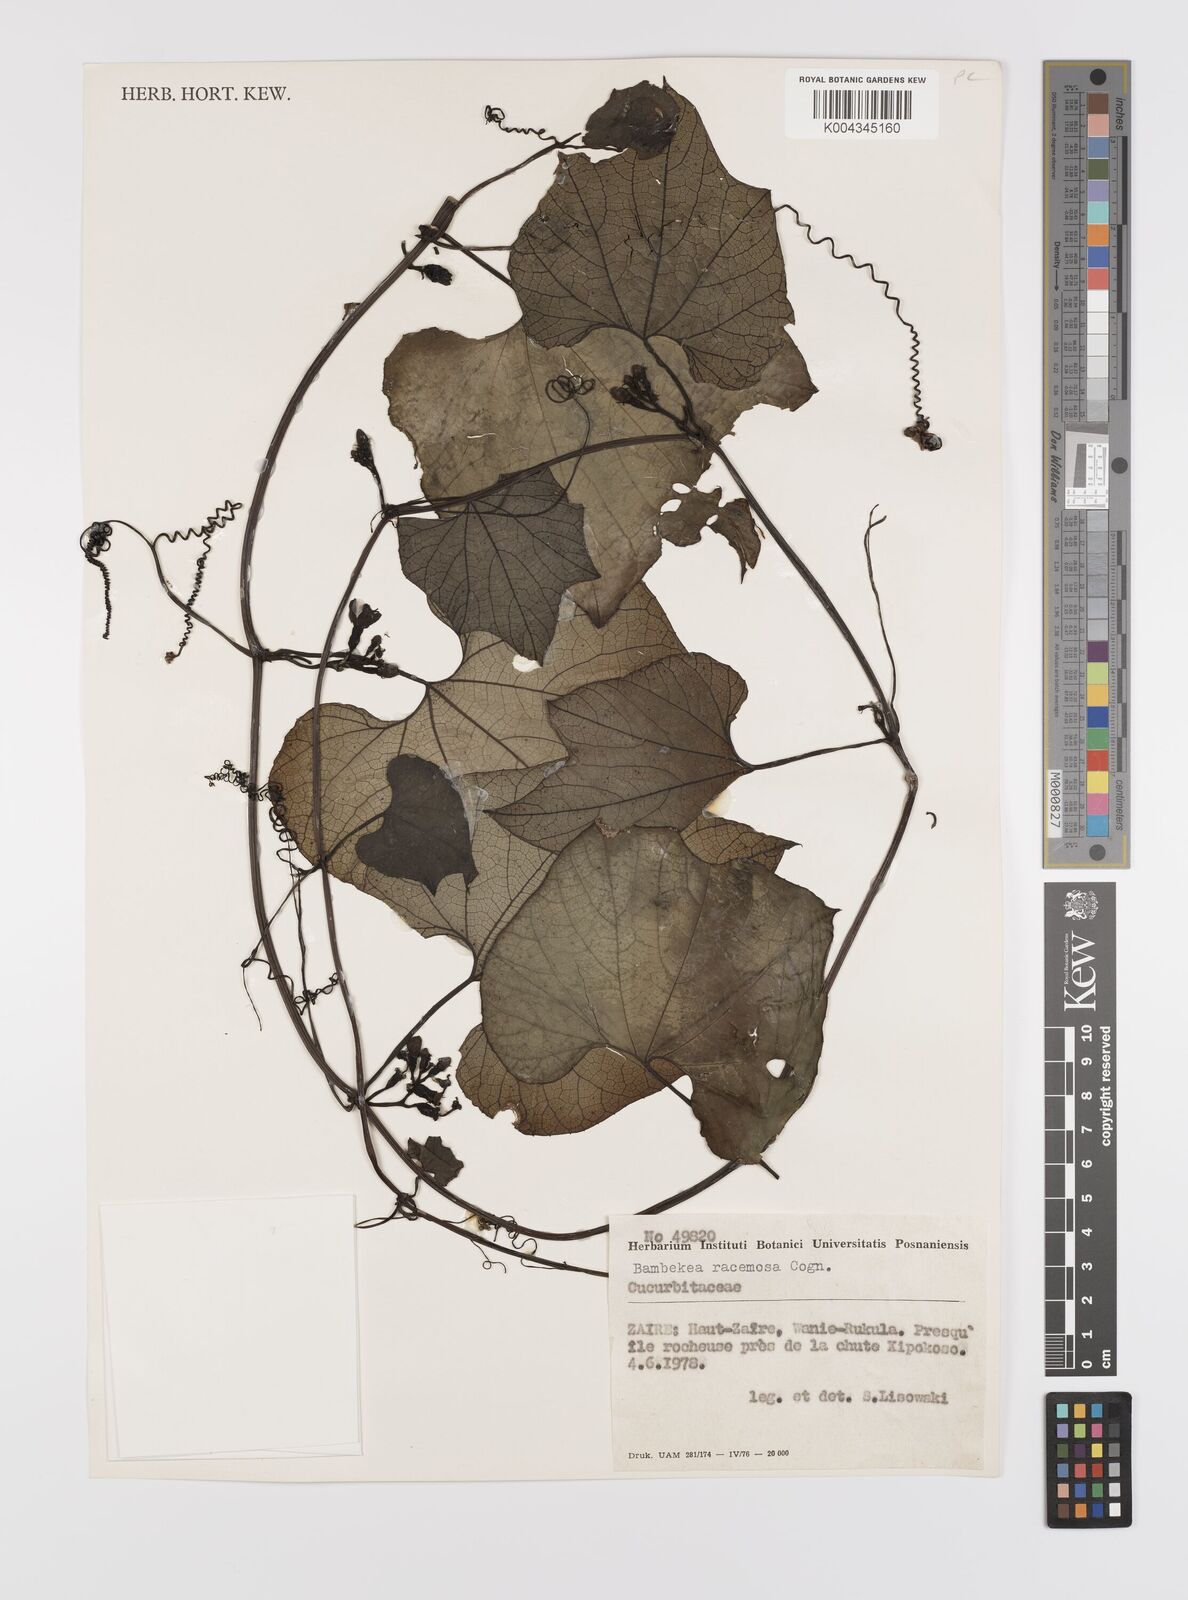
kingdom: Plantae
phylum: Tracheophyta
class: Magnoliopsida
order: Cucurbitales
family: Cucurbitaceae
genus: Bambekea
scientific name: Bambekea racemosa
